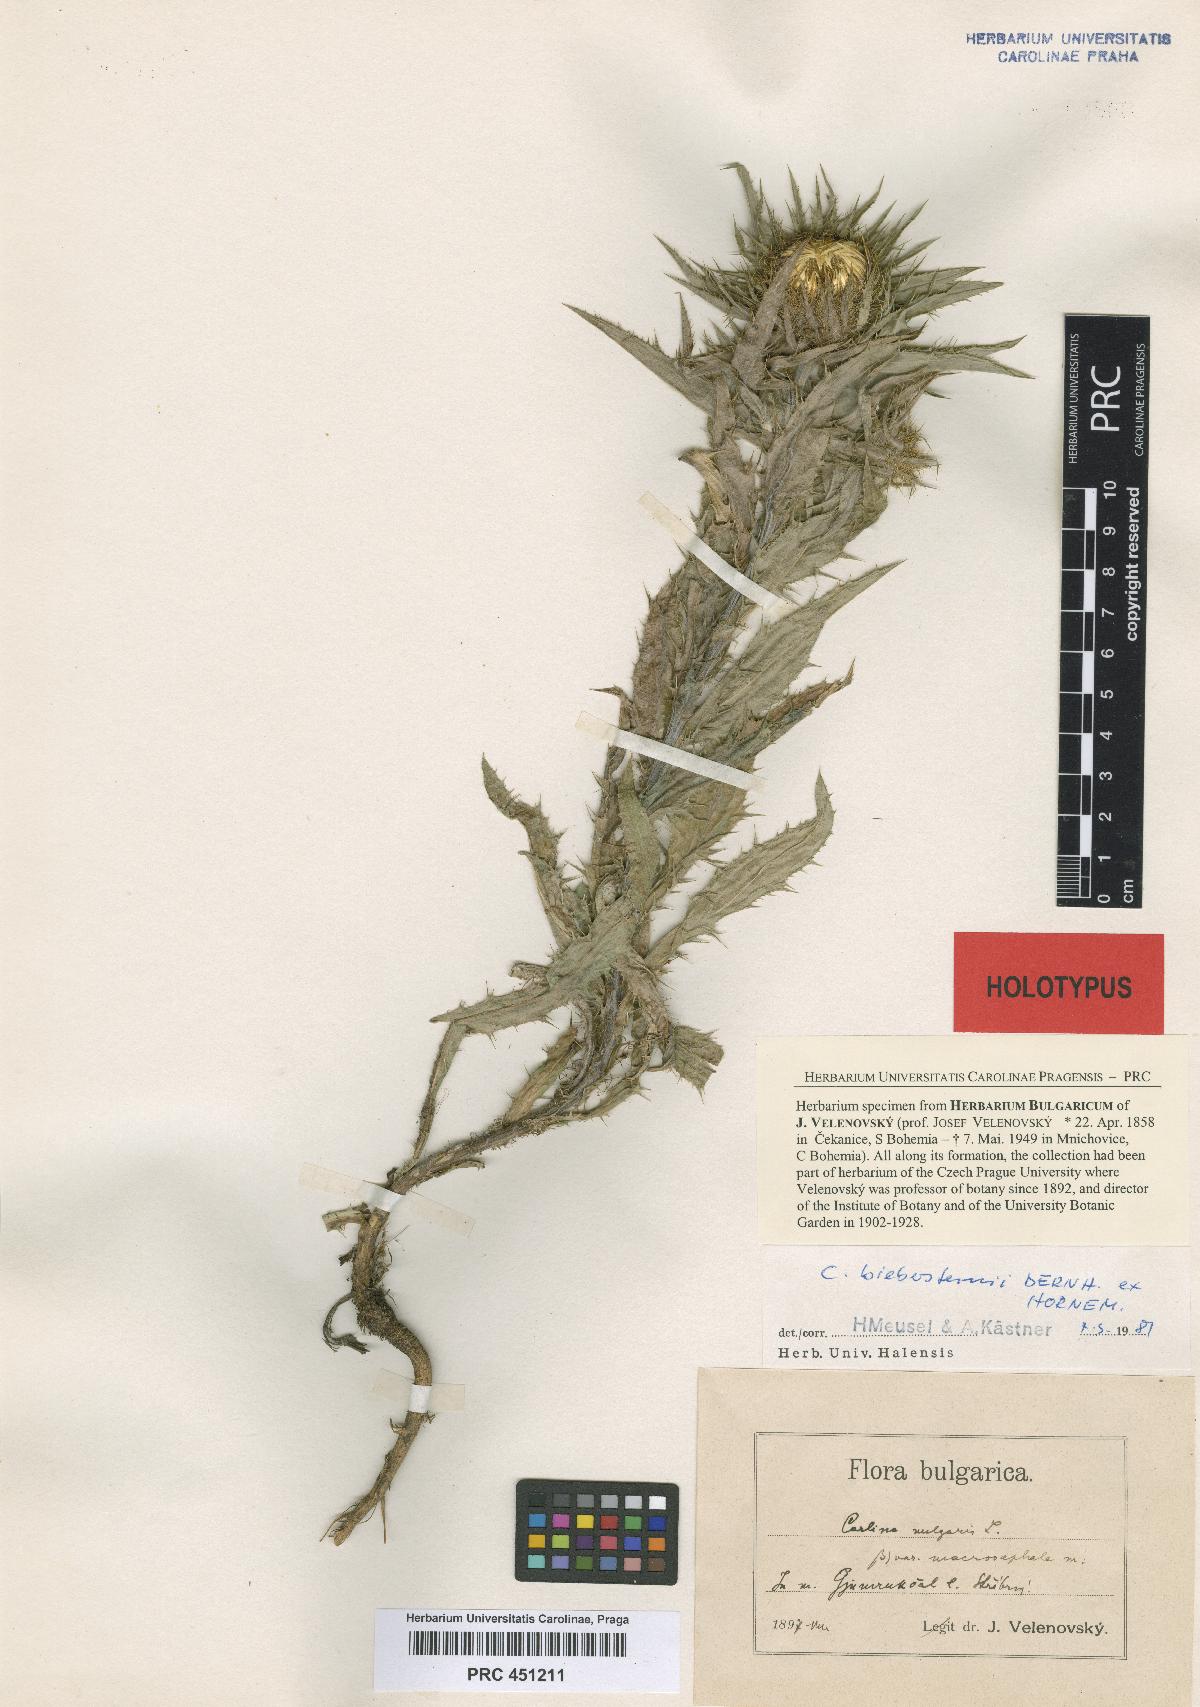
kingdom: Plantae
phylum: Tracheophyta
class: Magnoliopsida
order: Asterales
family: Asteraceae
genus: Carlina
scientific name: Carlina vulgaris
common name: Carline thistle
